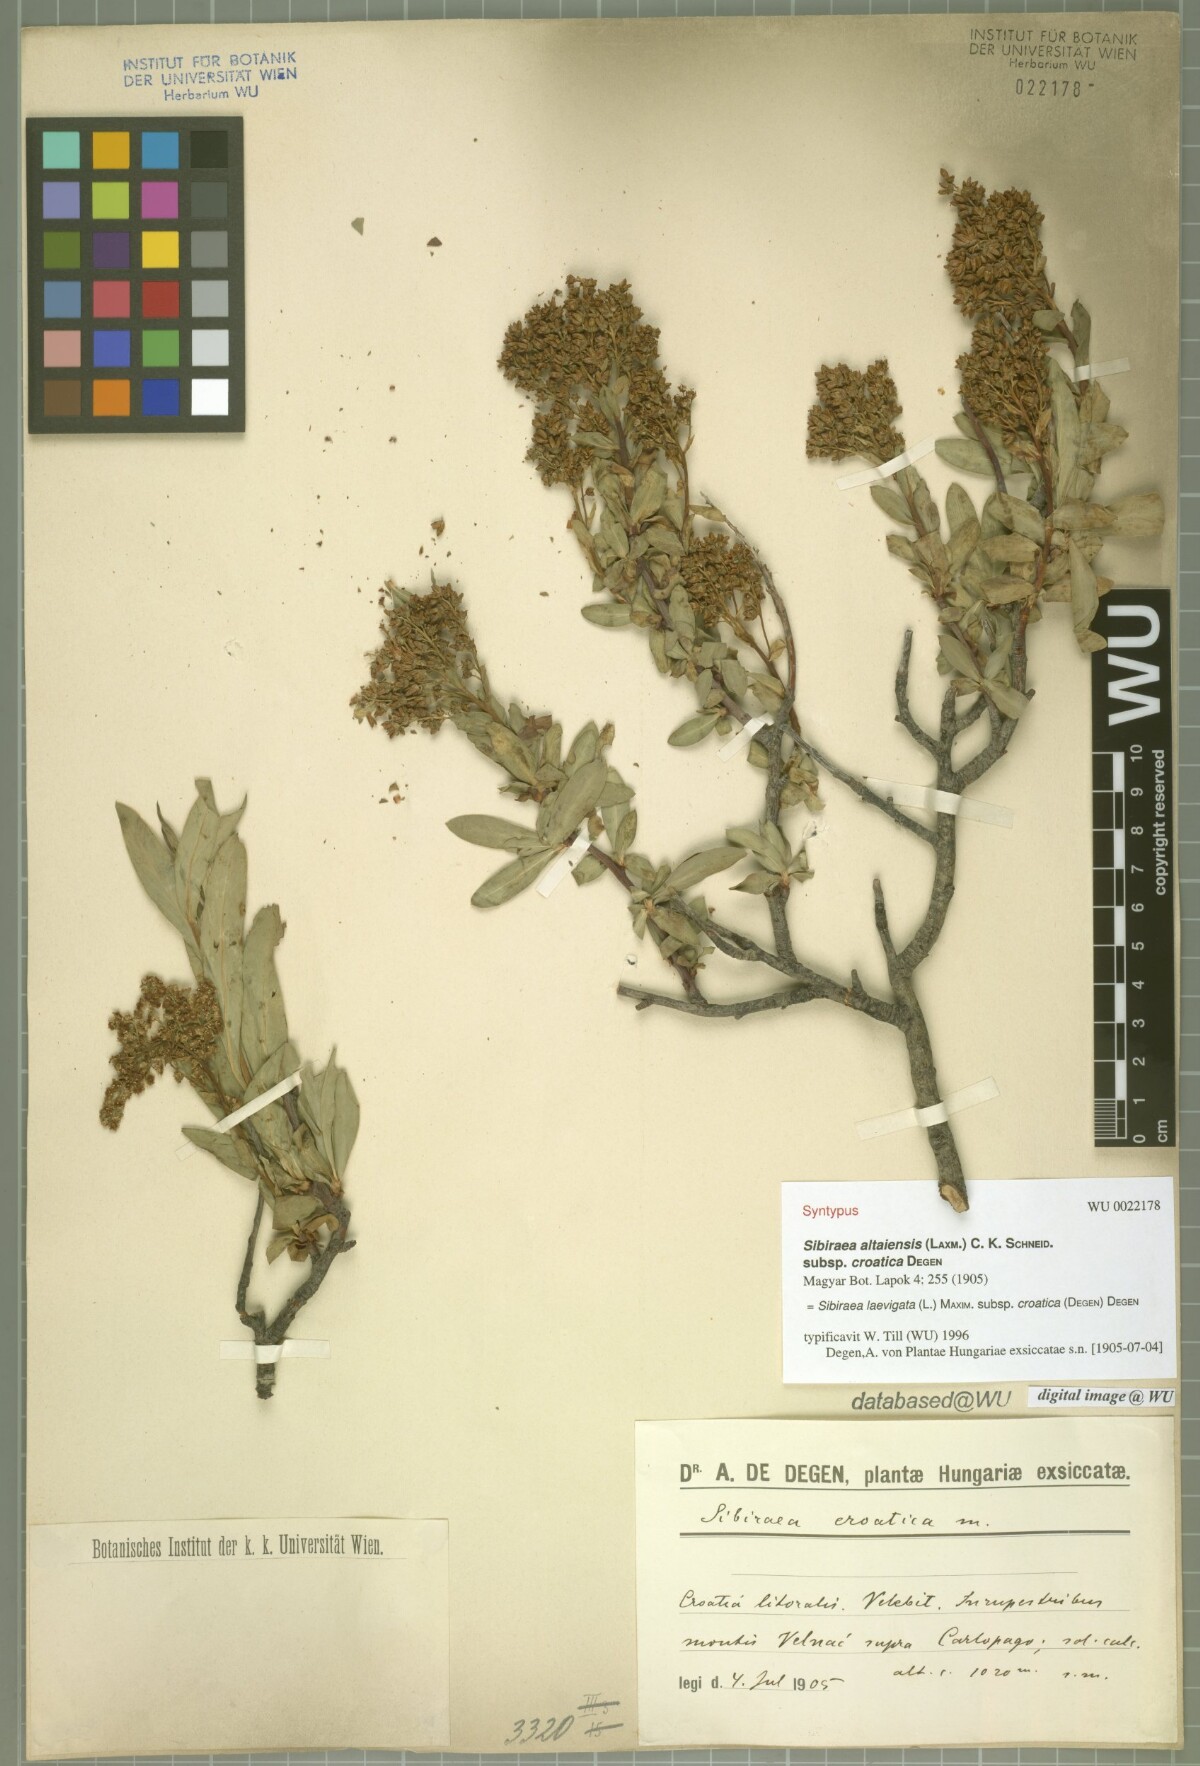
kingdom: Plantae
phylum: Tracheophyta
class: Magnoliopsida
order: Rosales
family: Rosaceae
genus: Sibiraea
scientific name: Sibiraea laevigata
